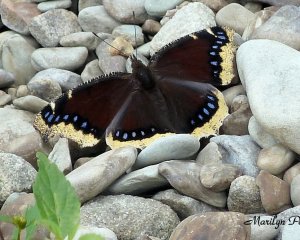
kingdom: Animalia
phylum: Arthropoda
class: Insecta
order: Lepidoptera
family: Nymphalidae
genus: Nymphalis
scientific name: Nymphalis antiopa
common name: Mourning Cloak
